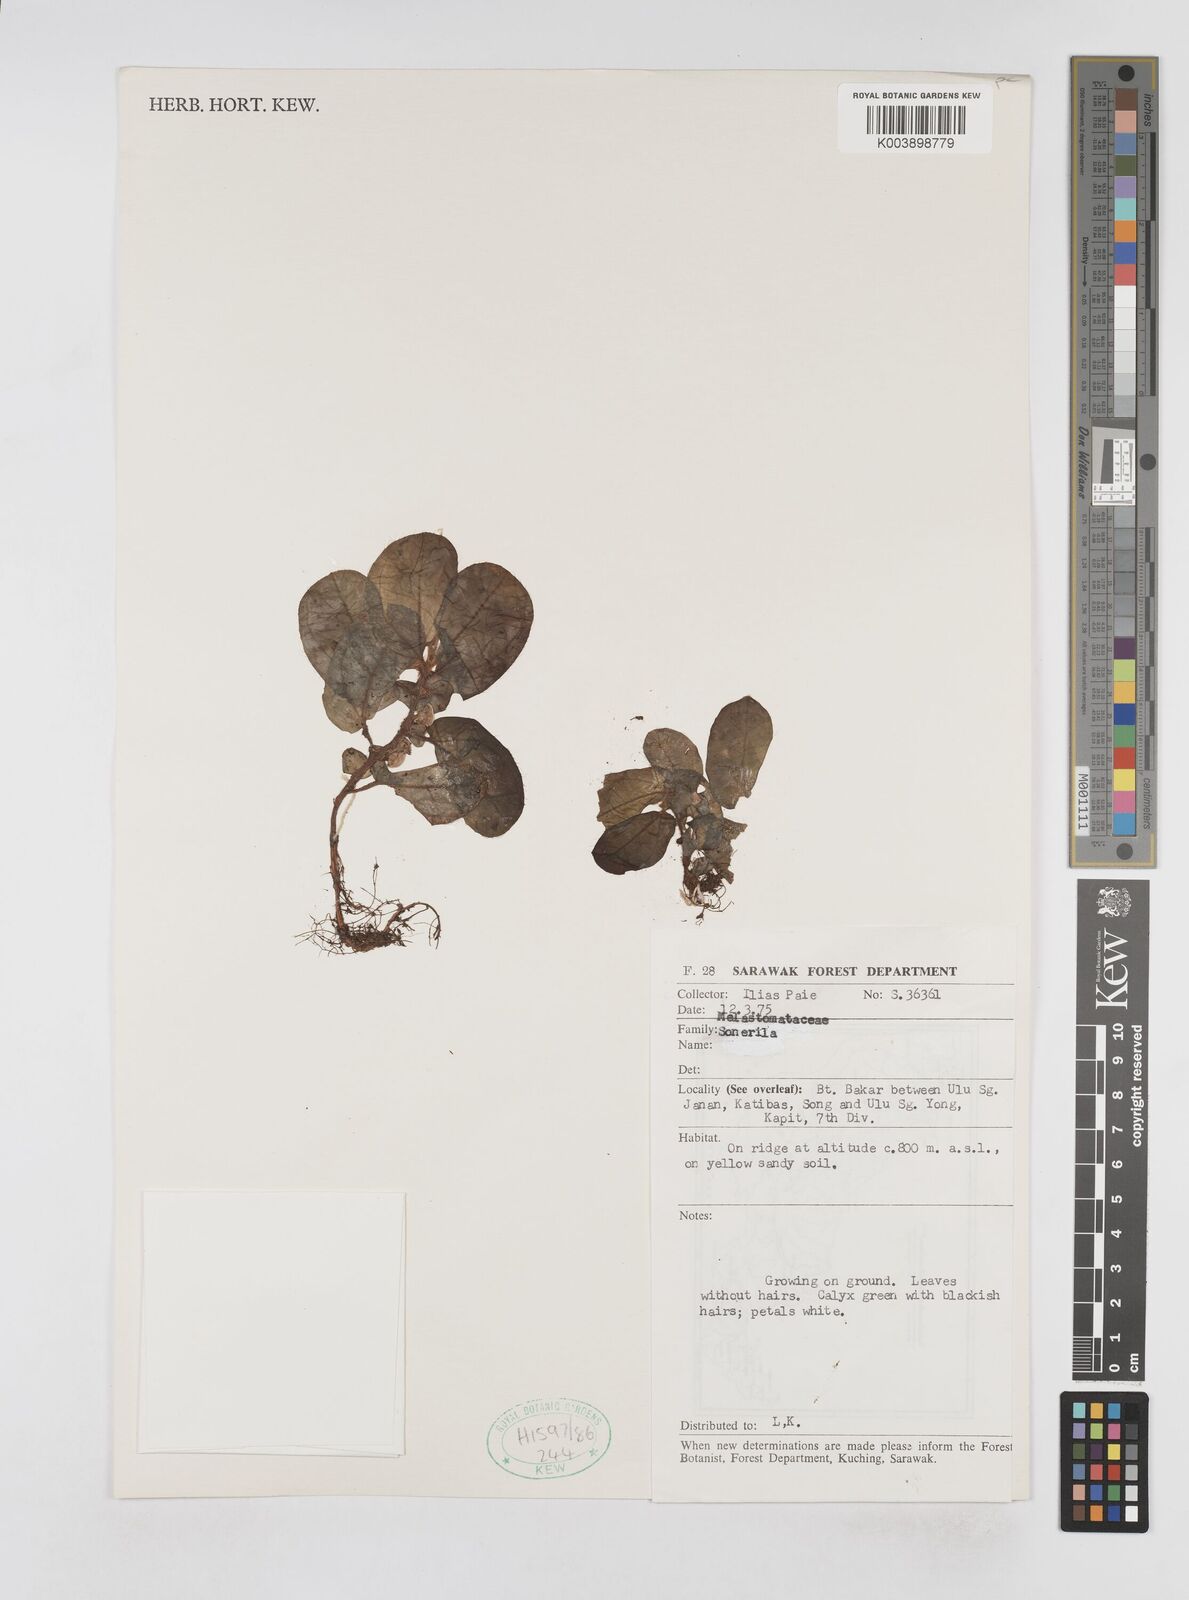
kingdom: Plantae
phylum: Tracheophyta
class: Magnoliopsida
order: Myrtales
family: Melastomataceae
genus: Sonerila
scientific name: Sonerila
